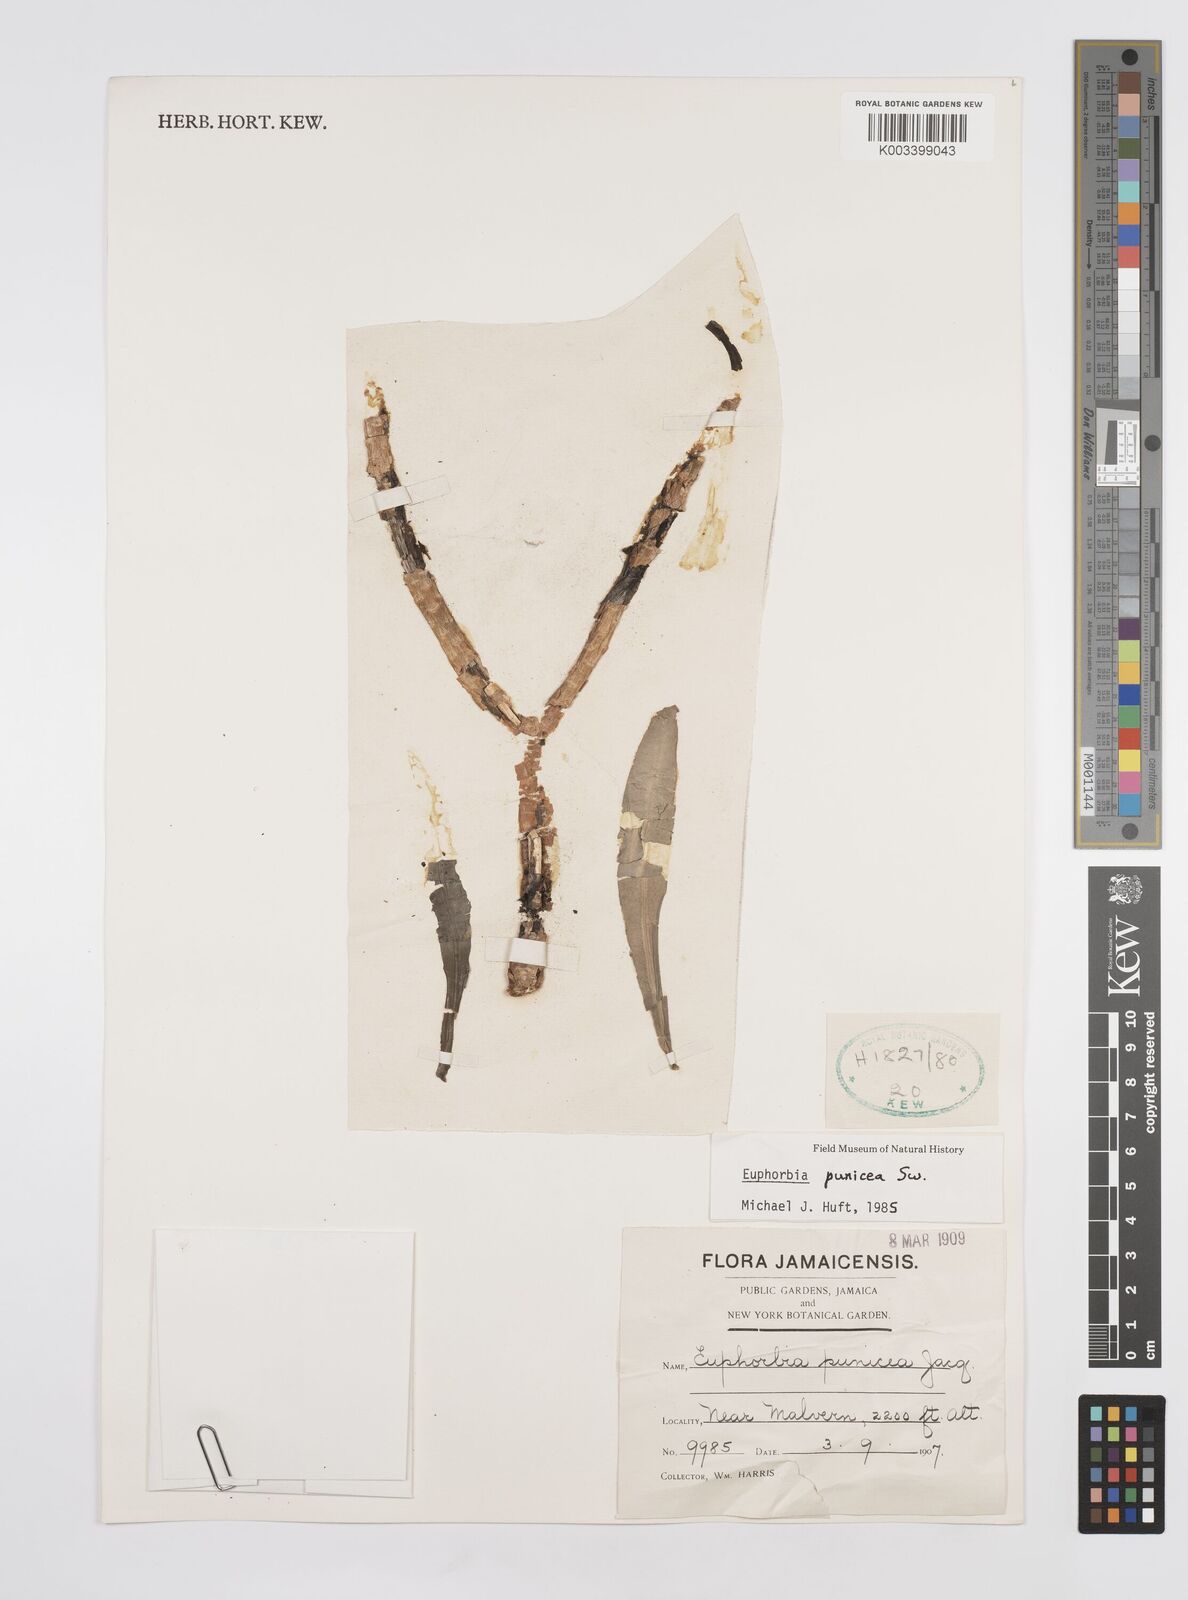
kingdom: Plantae
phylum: Tracheophyta
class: Magnoliopsida
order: Malpighiales
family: Euphorbiaceae
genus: Euphorbia
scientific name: Euphorbia punicea
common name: Vegetable-leather
